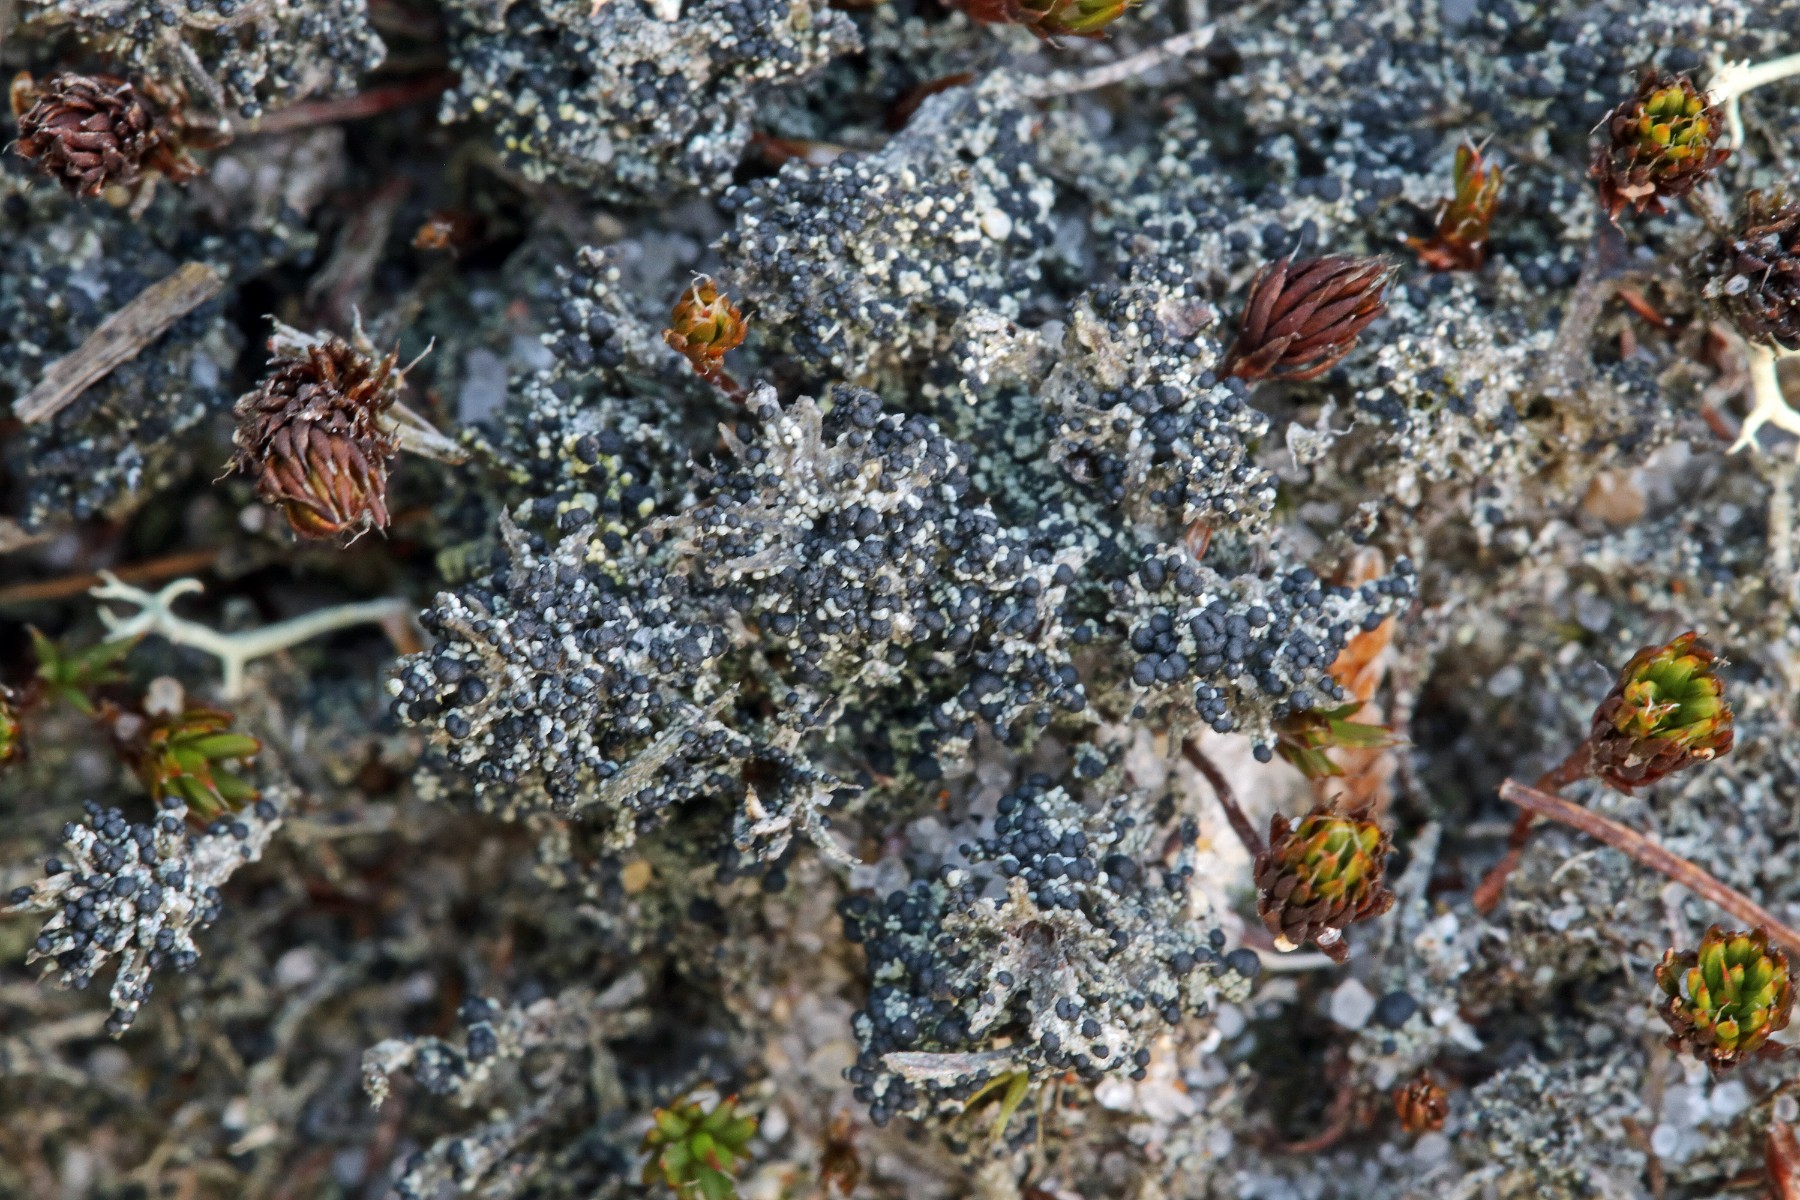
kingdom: Fungi
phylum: Ascomycota
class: Lecanoromycetes
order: Lecanorales
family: Byssolomataceae
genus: Micarea
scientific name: Micarea lignaria
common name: tørve-knaplav
